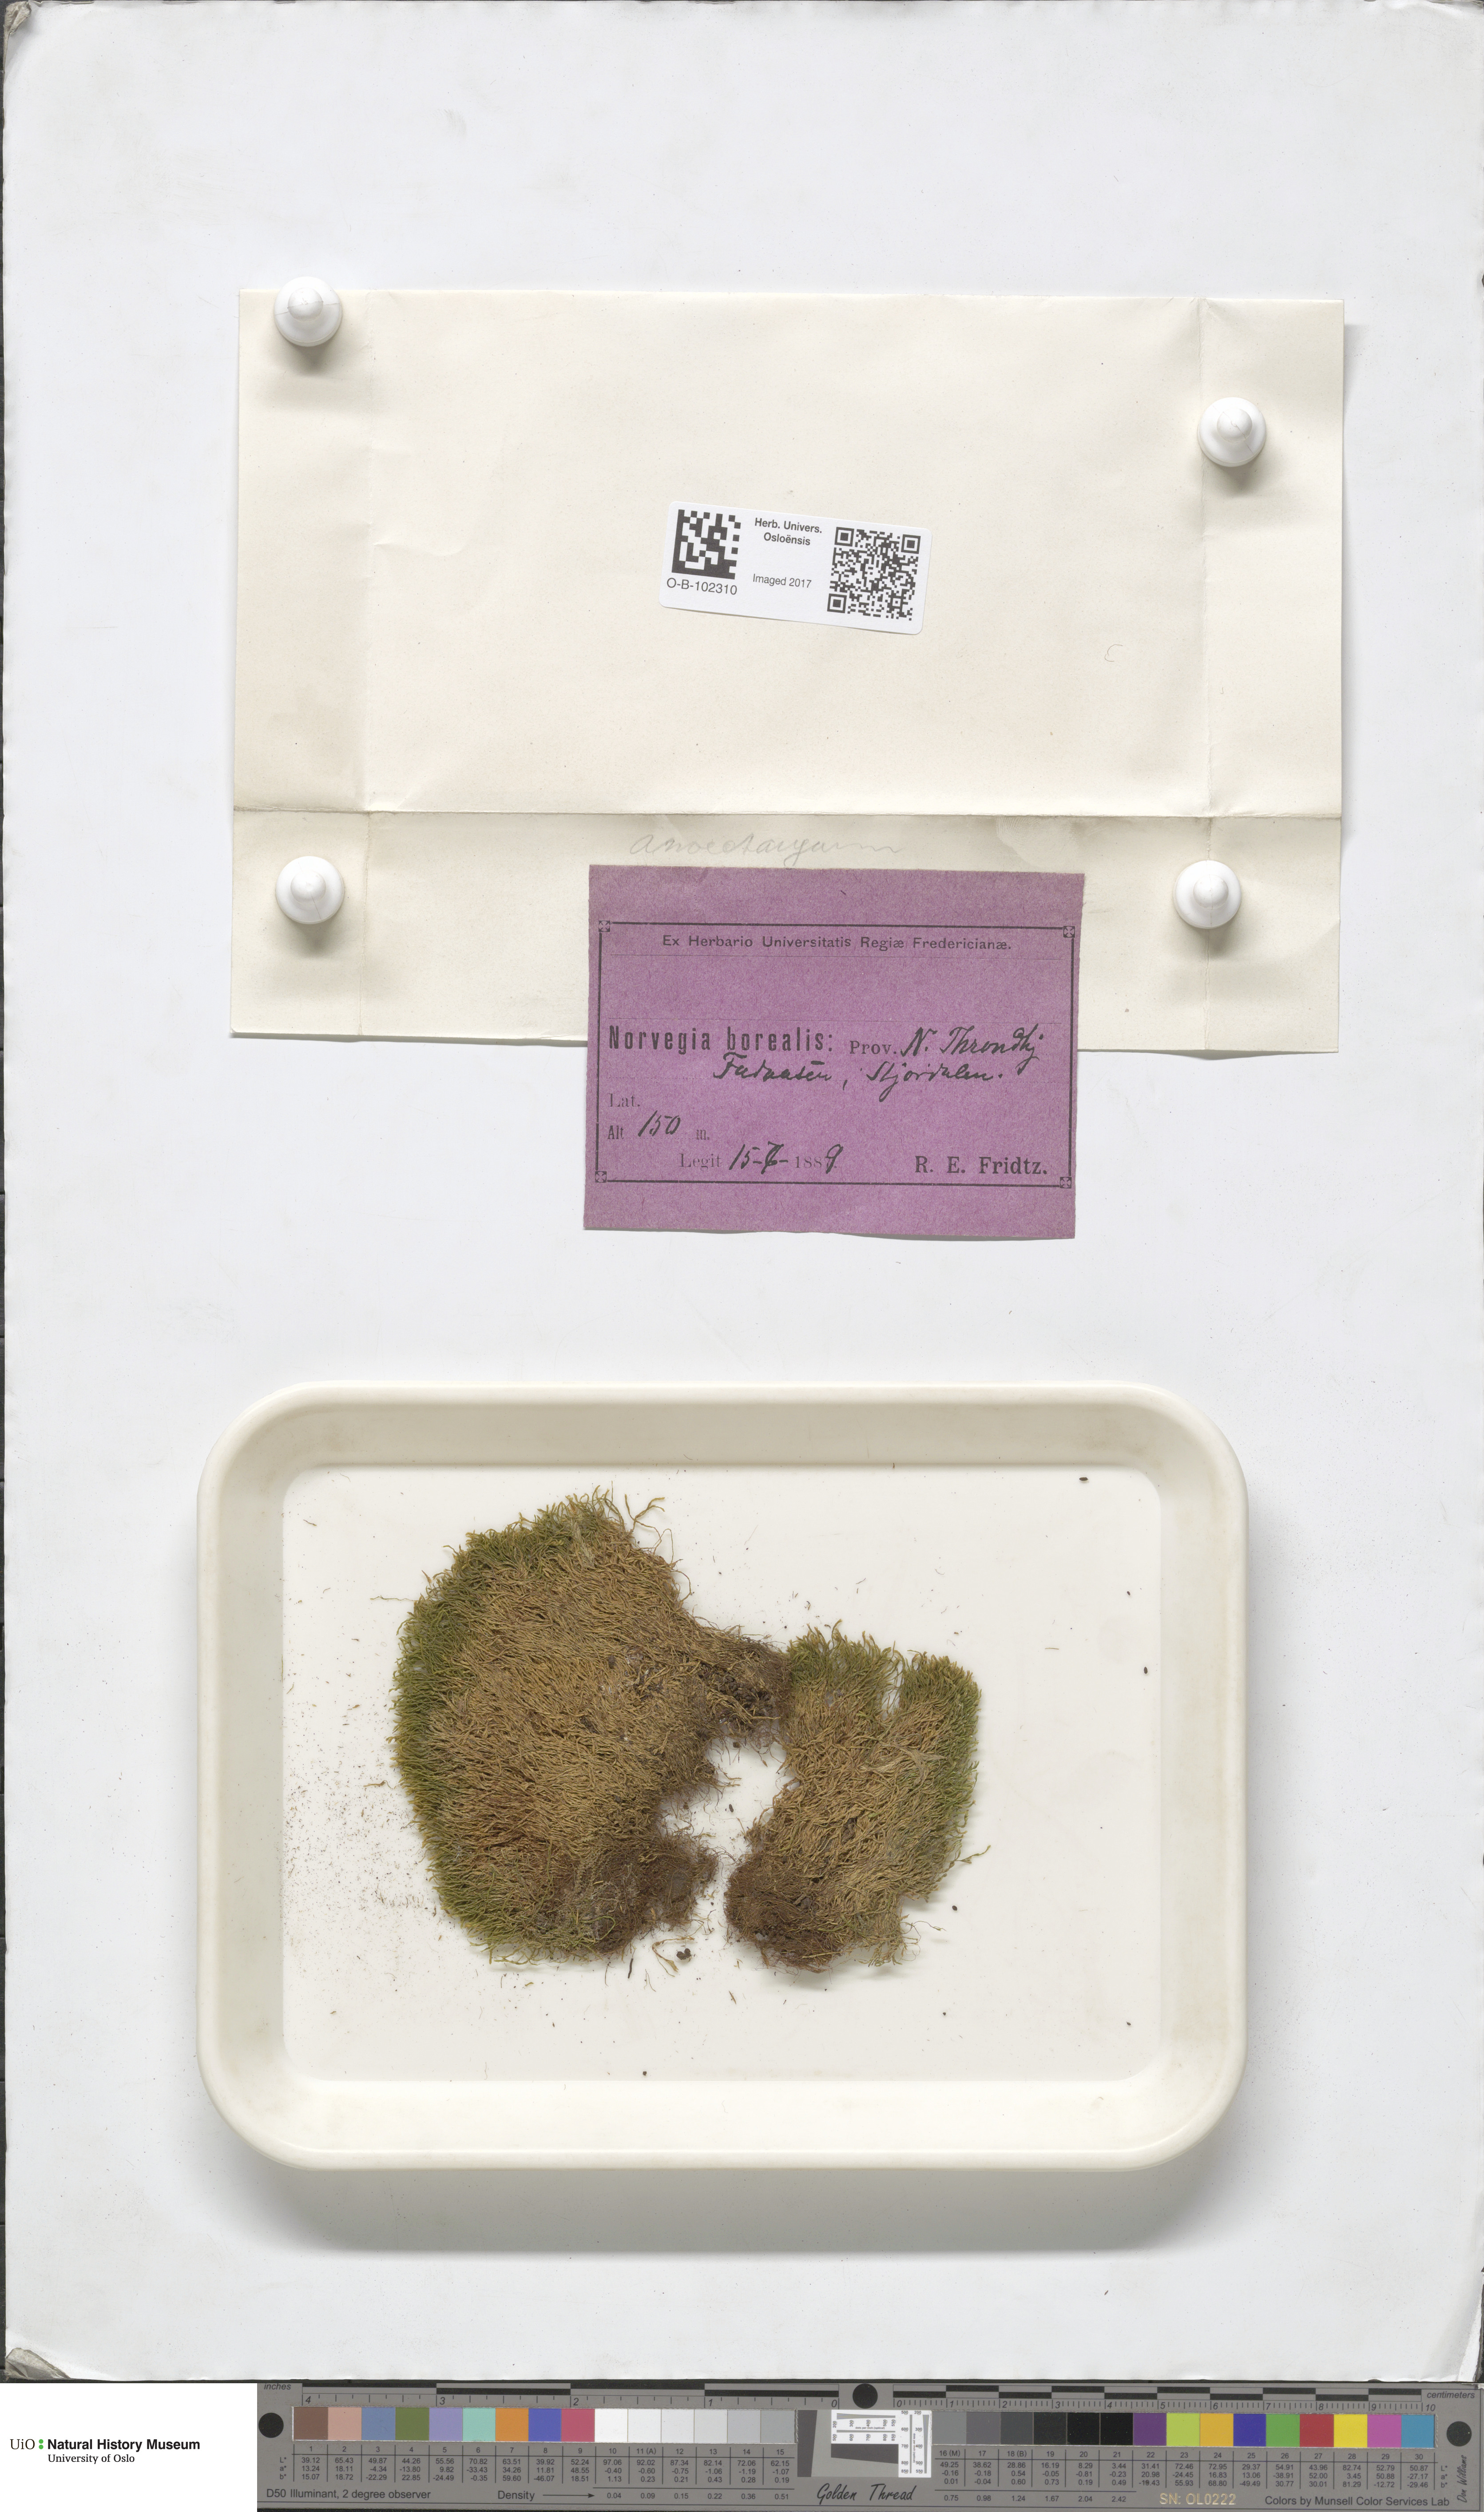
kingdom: Plantae
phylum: Bryophyta
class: Bryopsida
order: Pottiales
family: Pottiaceae
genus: Anoectangium
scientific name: Anoectangium aestivum
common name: Summer-moss
